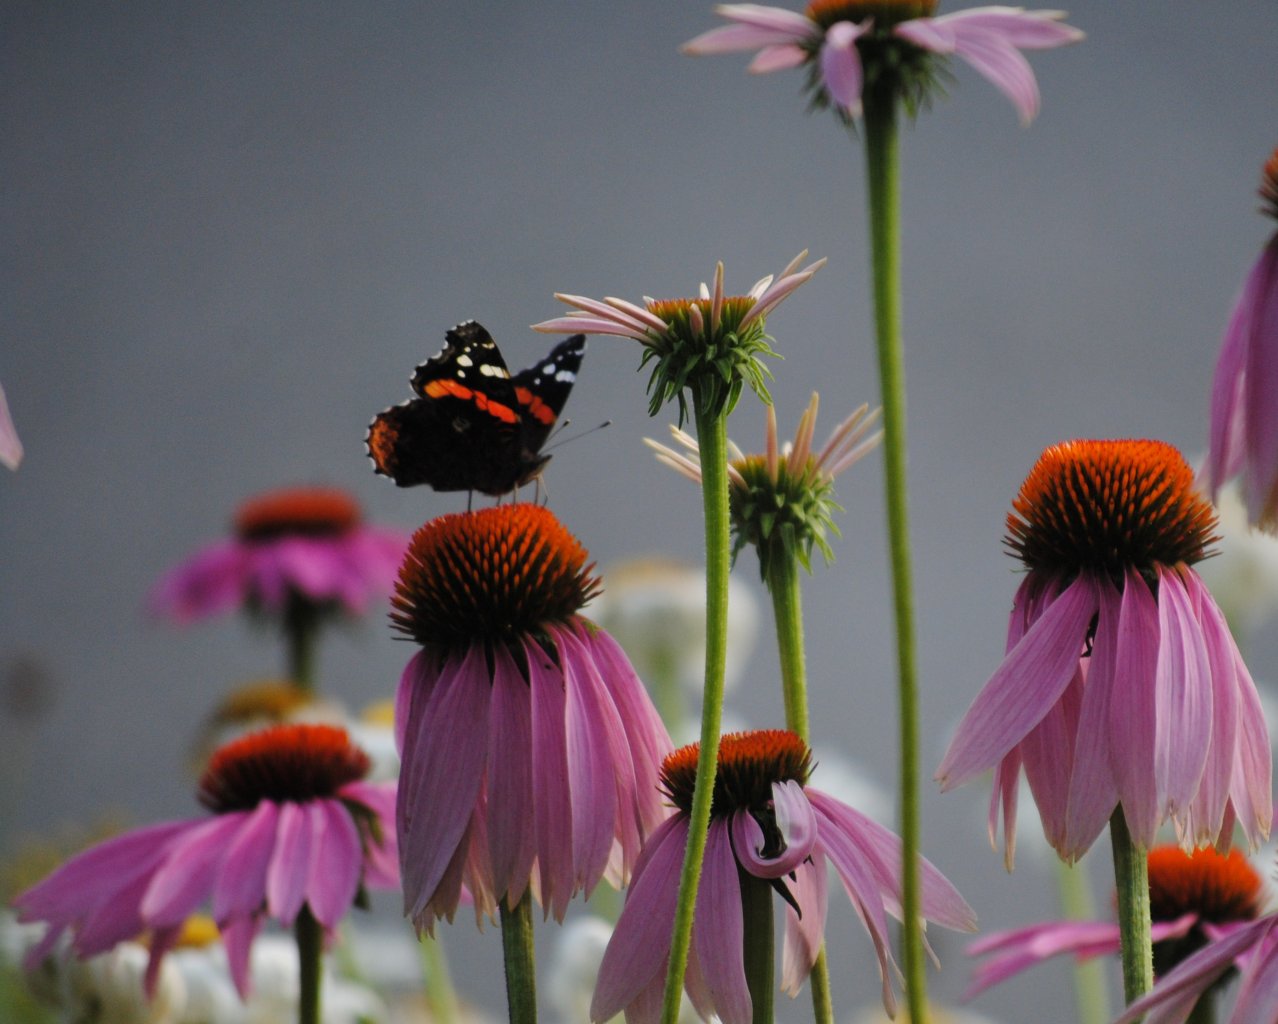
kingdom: Animalia
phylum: Arthropoda
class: Insecta
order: Lepidoptera
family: Nymphalidae
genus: Vanessa
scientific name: Vanessa atalanta
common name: Red Admiral
